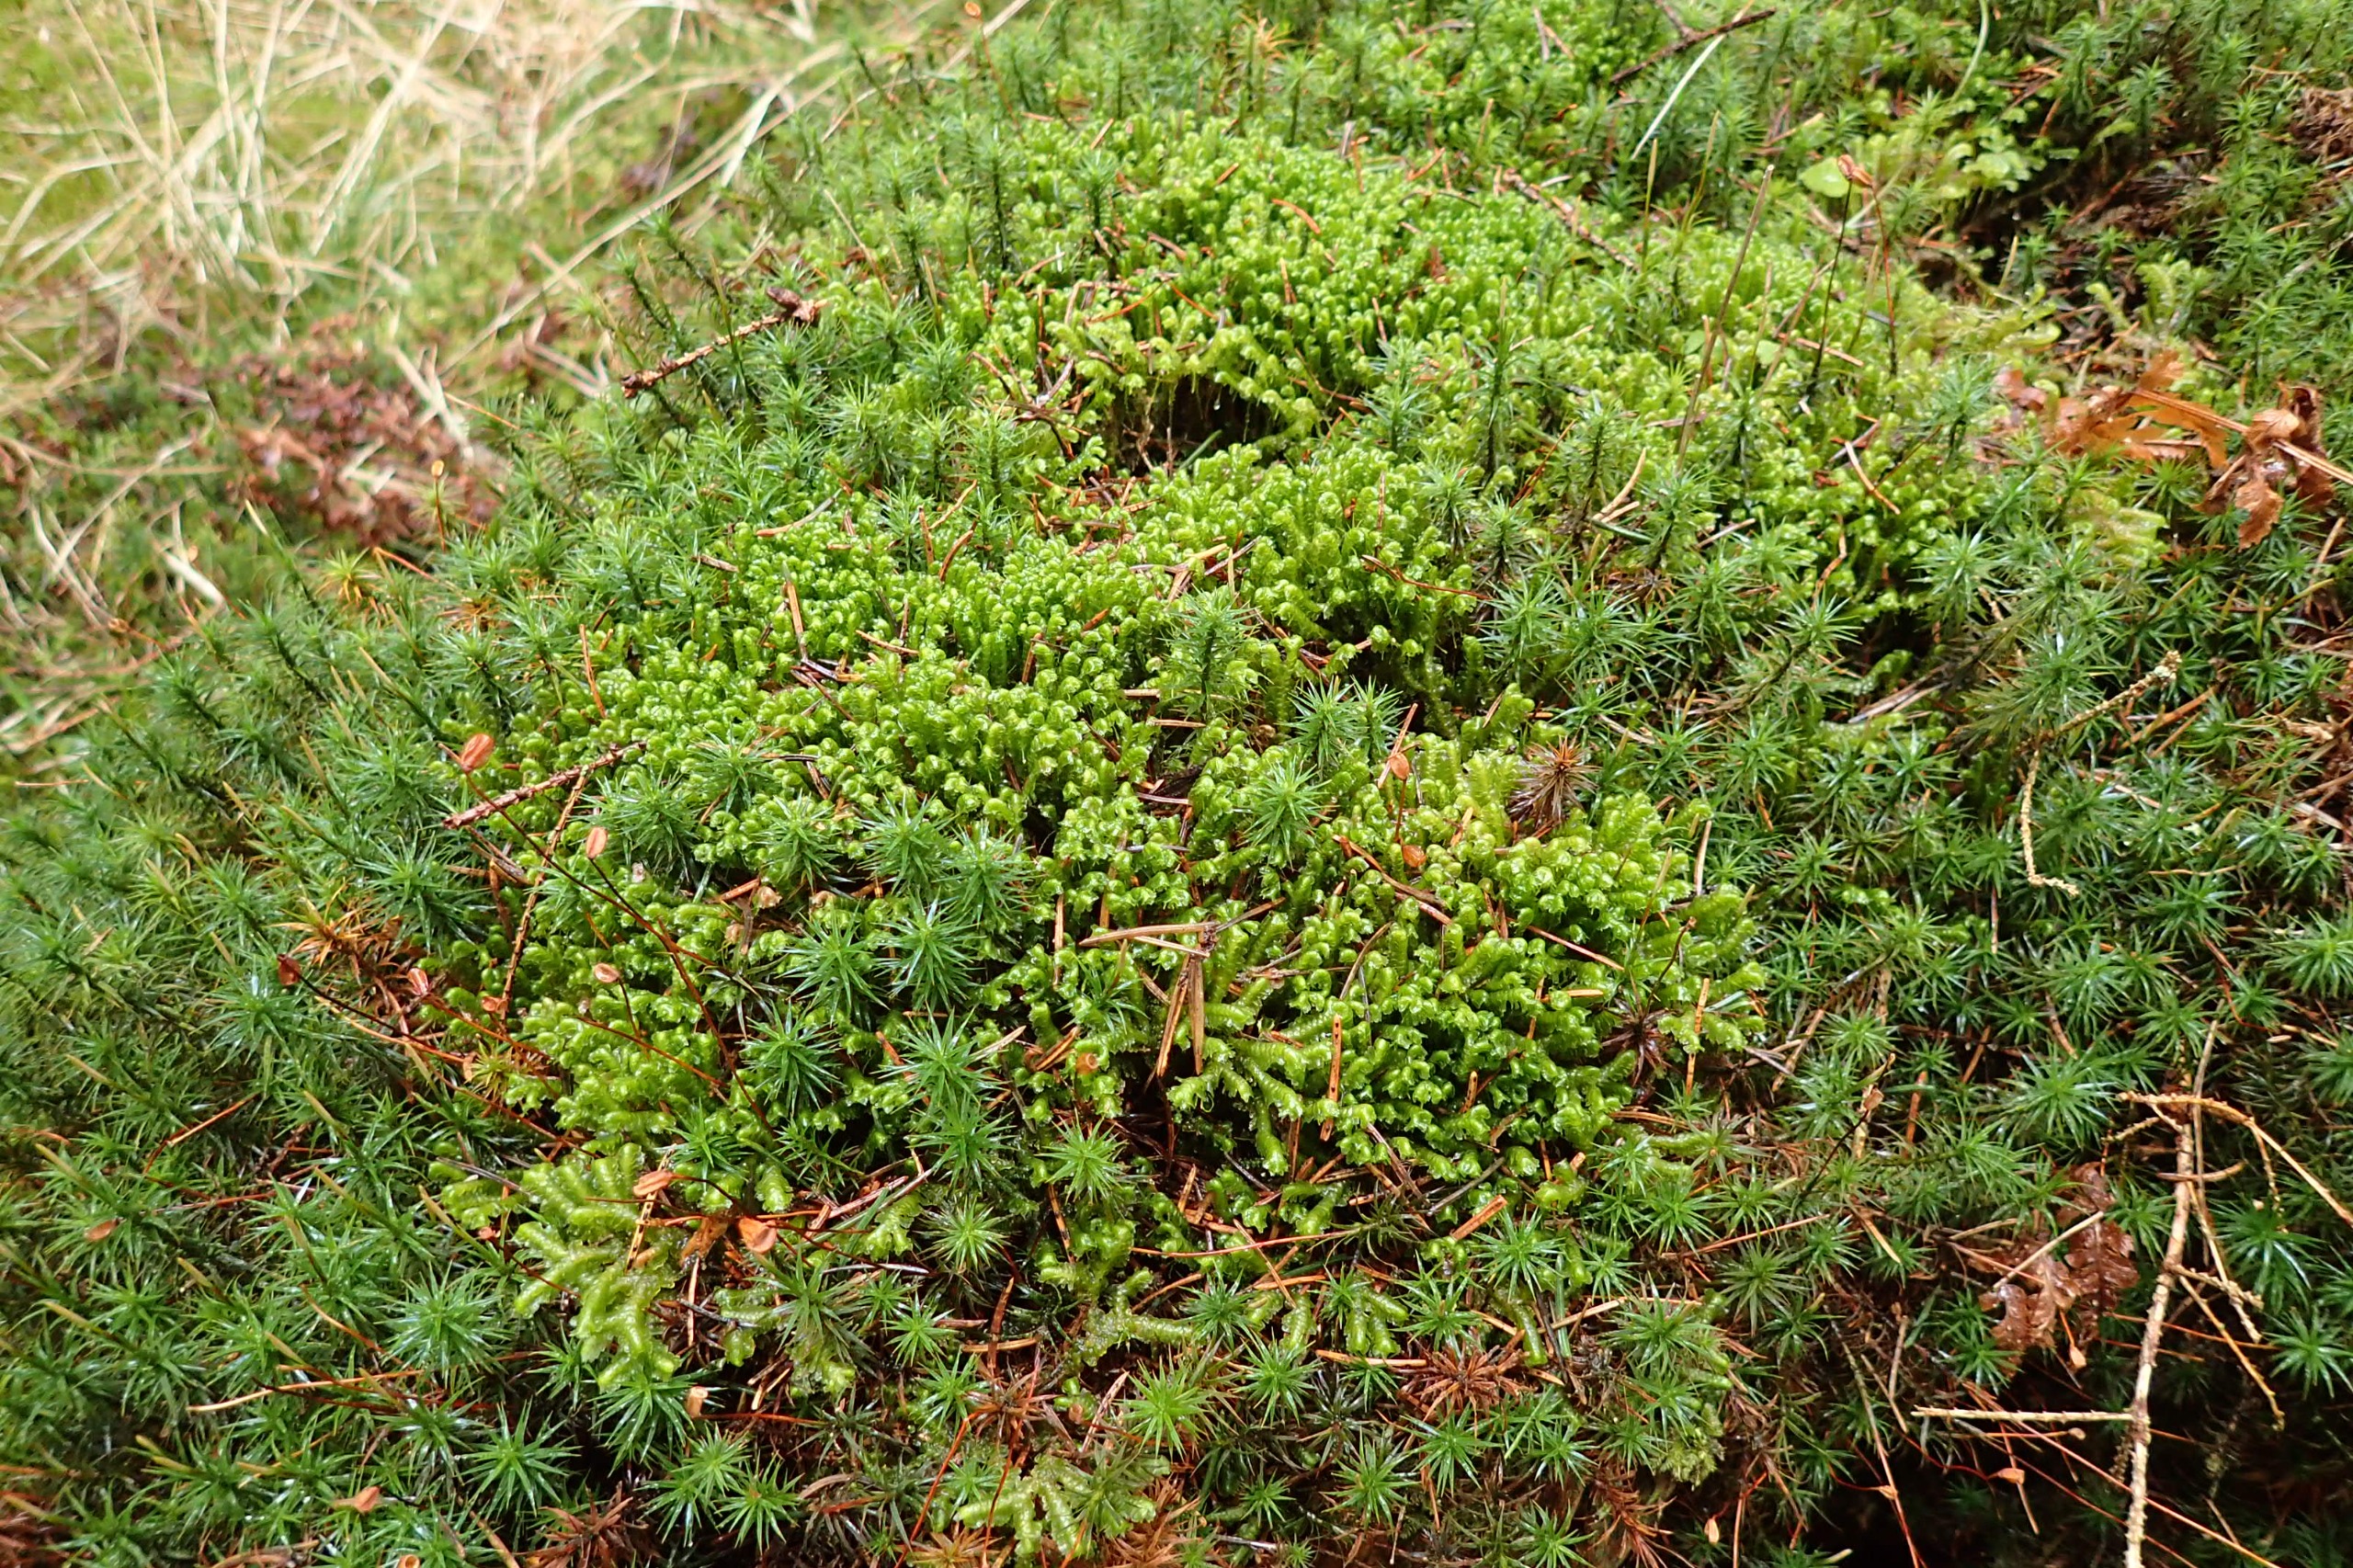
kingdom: Plantae
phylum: Marchantiophyta
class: Jungermanniopsida
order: Jungermanniales
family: Lepidoziaceae
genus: Bazzania
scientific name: Bazzania trilobata
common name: Stor styltemos
